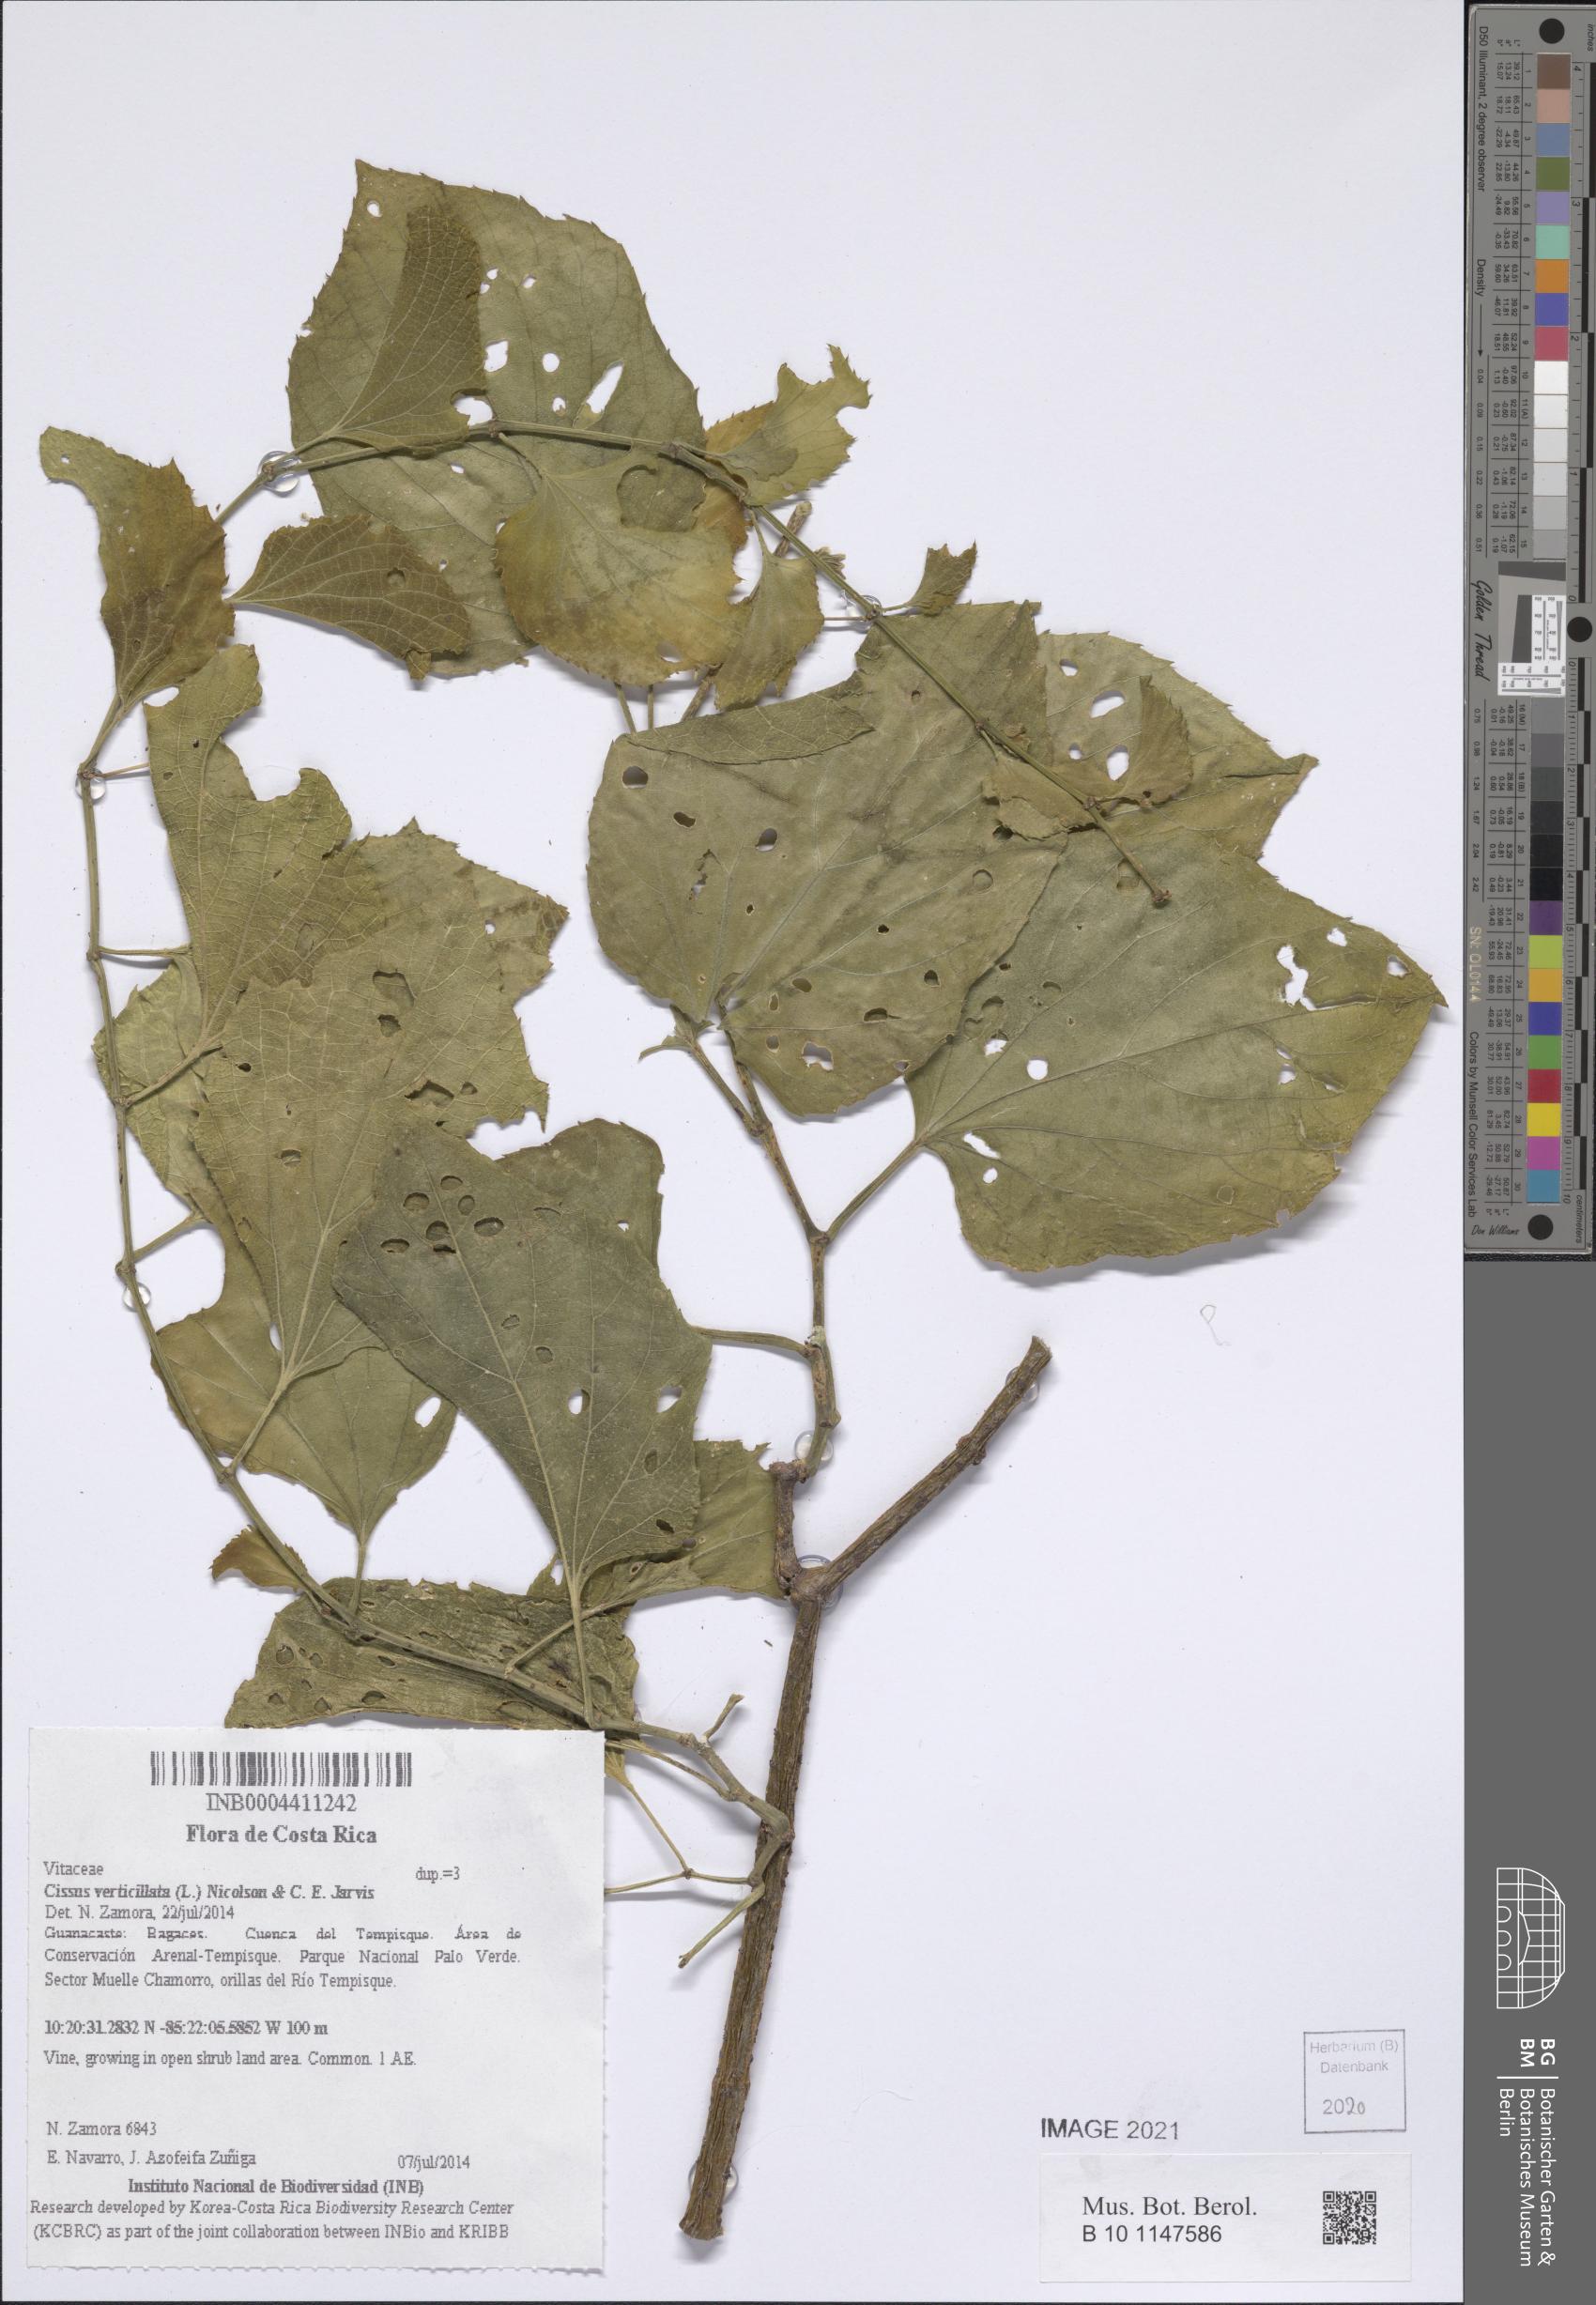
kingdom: Plantae
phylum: Tracheophyta
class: Magnoliopsida
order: Vitales
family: Vitaceae
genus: Cissus
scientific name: Cissus verticillata
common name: Princess vine
